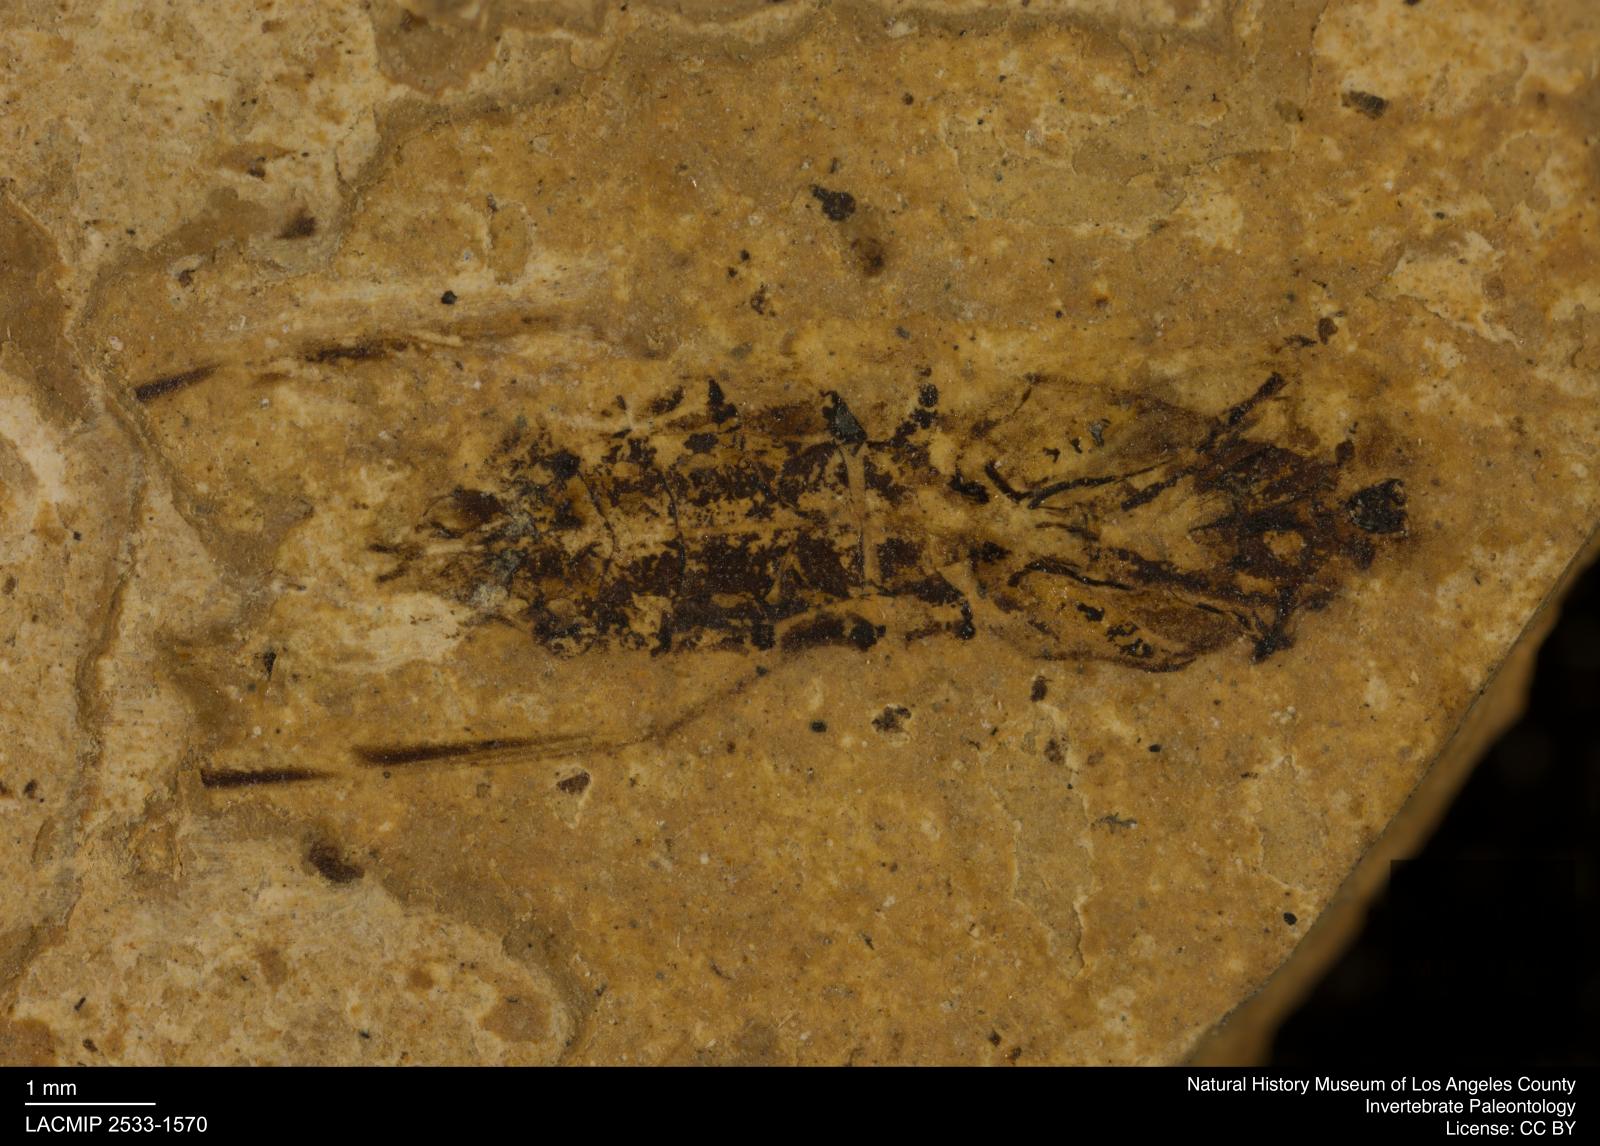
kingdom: Animalia
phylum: Arthropoda
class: Insecta
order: Hemiptera
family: Notonectidae
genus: Notonecta
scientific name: Notonecta
